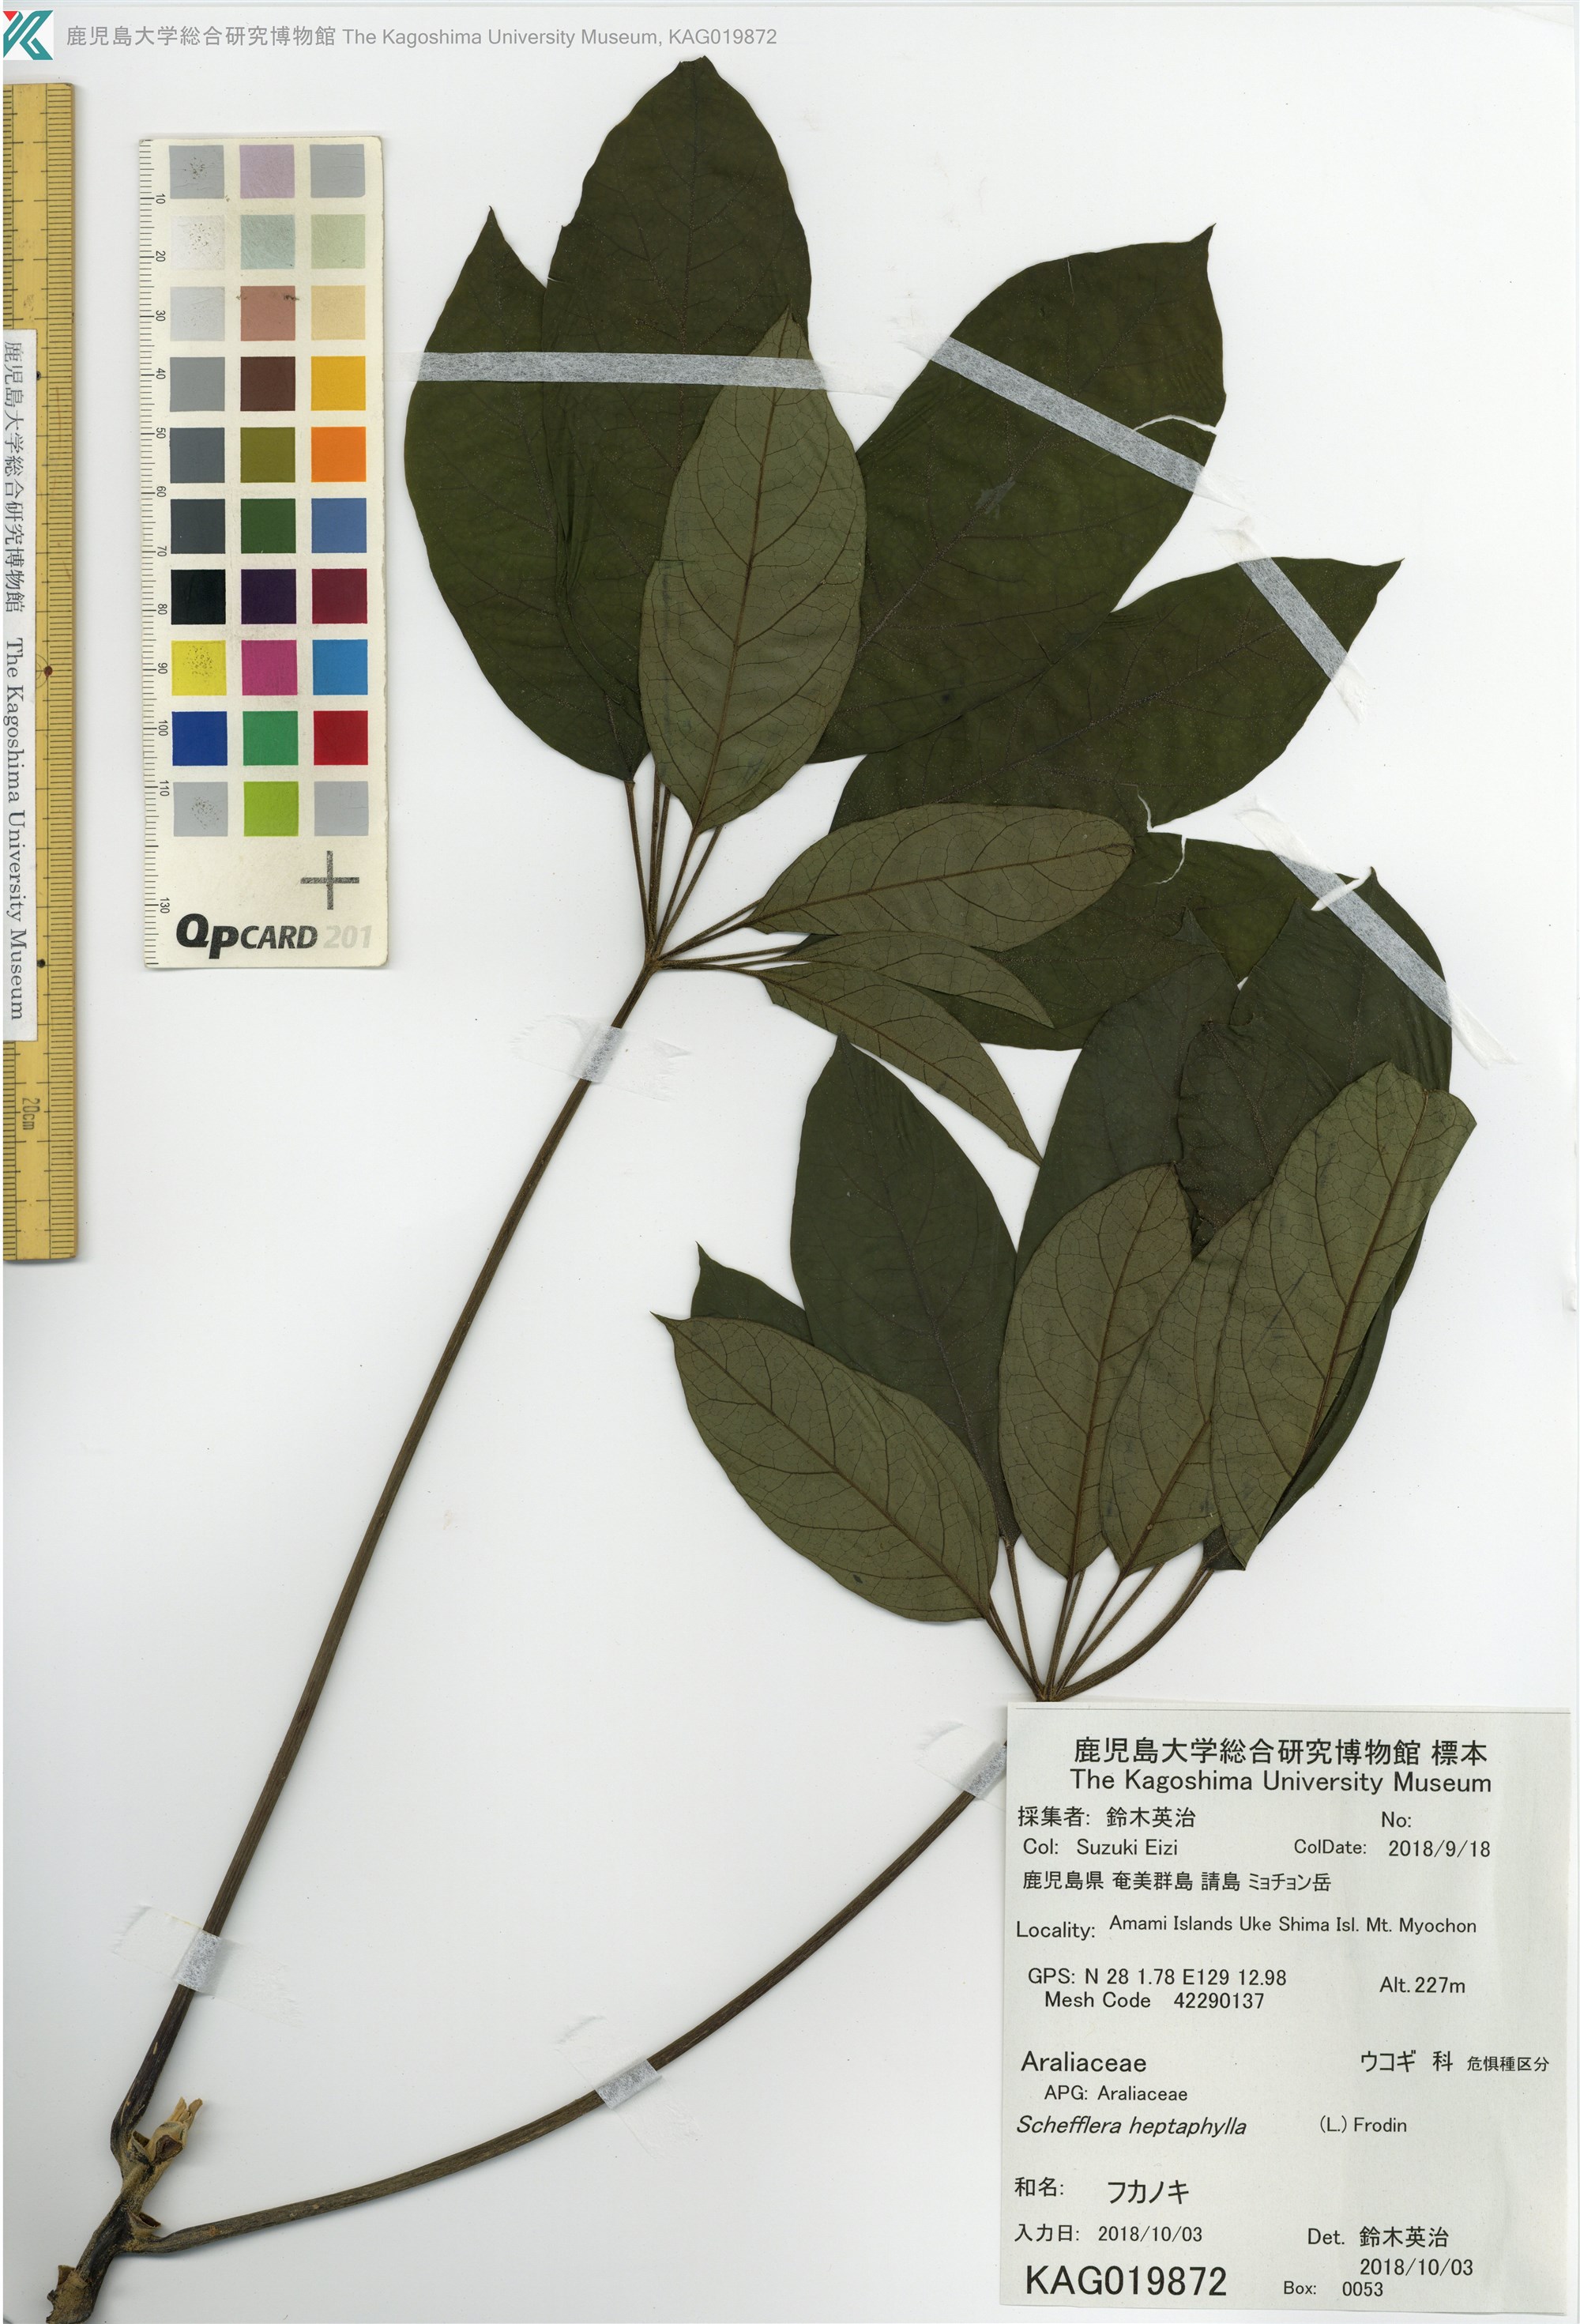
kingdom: Plantae
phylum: Tracheophyta
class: Magnoliopsida
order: Apiales
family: Araliaceae
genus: Heptapleurum
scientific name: Heptapleurum heptaphyllum
